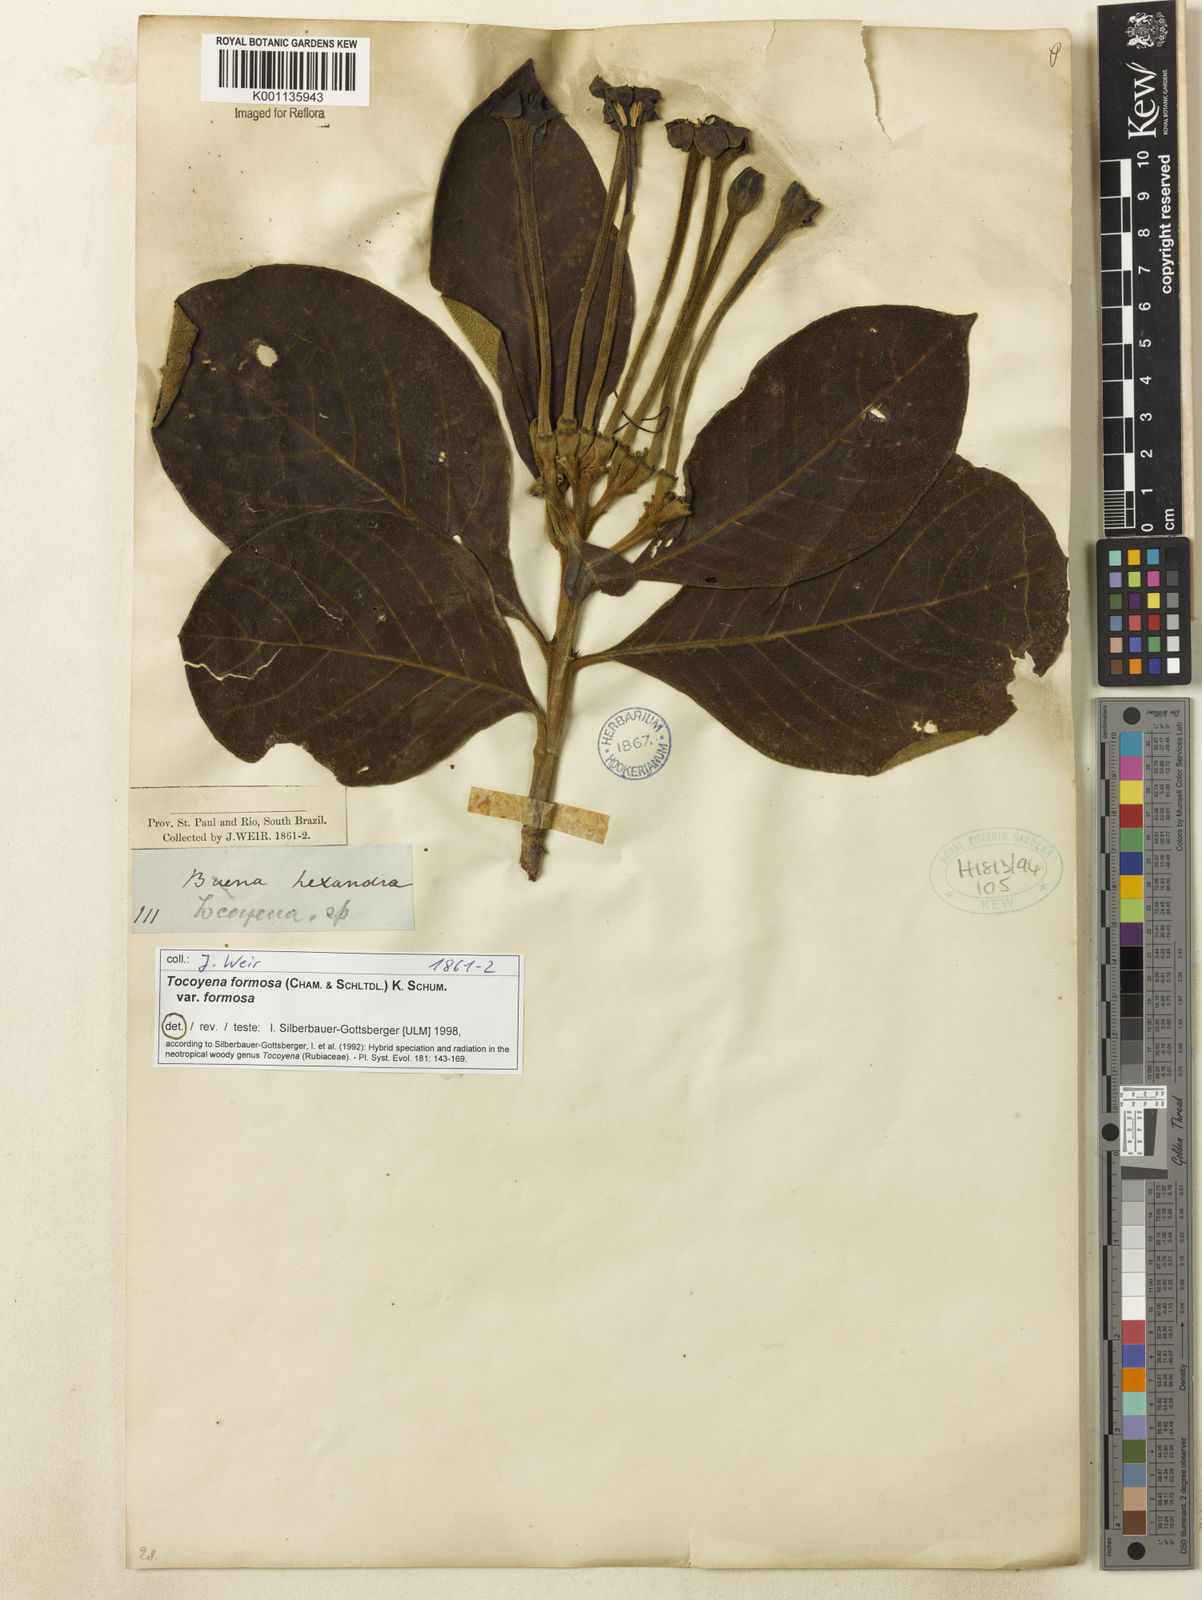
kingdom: Plantae
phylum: Tracheophyta
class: Magnoliopsida
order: Gentianales
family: Rubiaceae
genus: Tocoyena
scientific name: Tocoyena formosa
